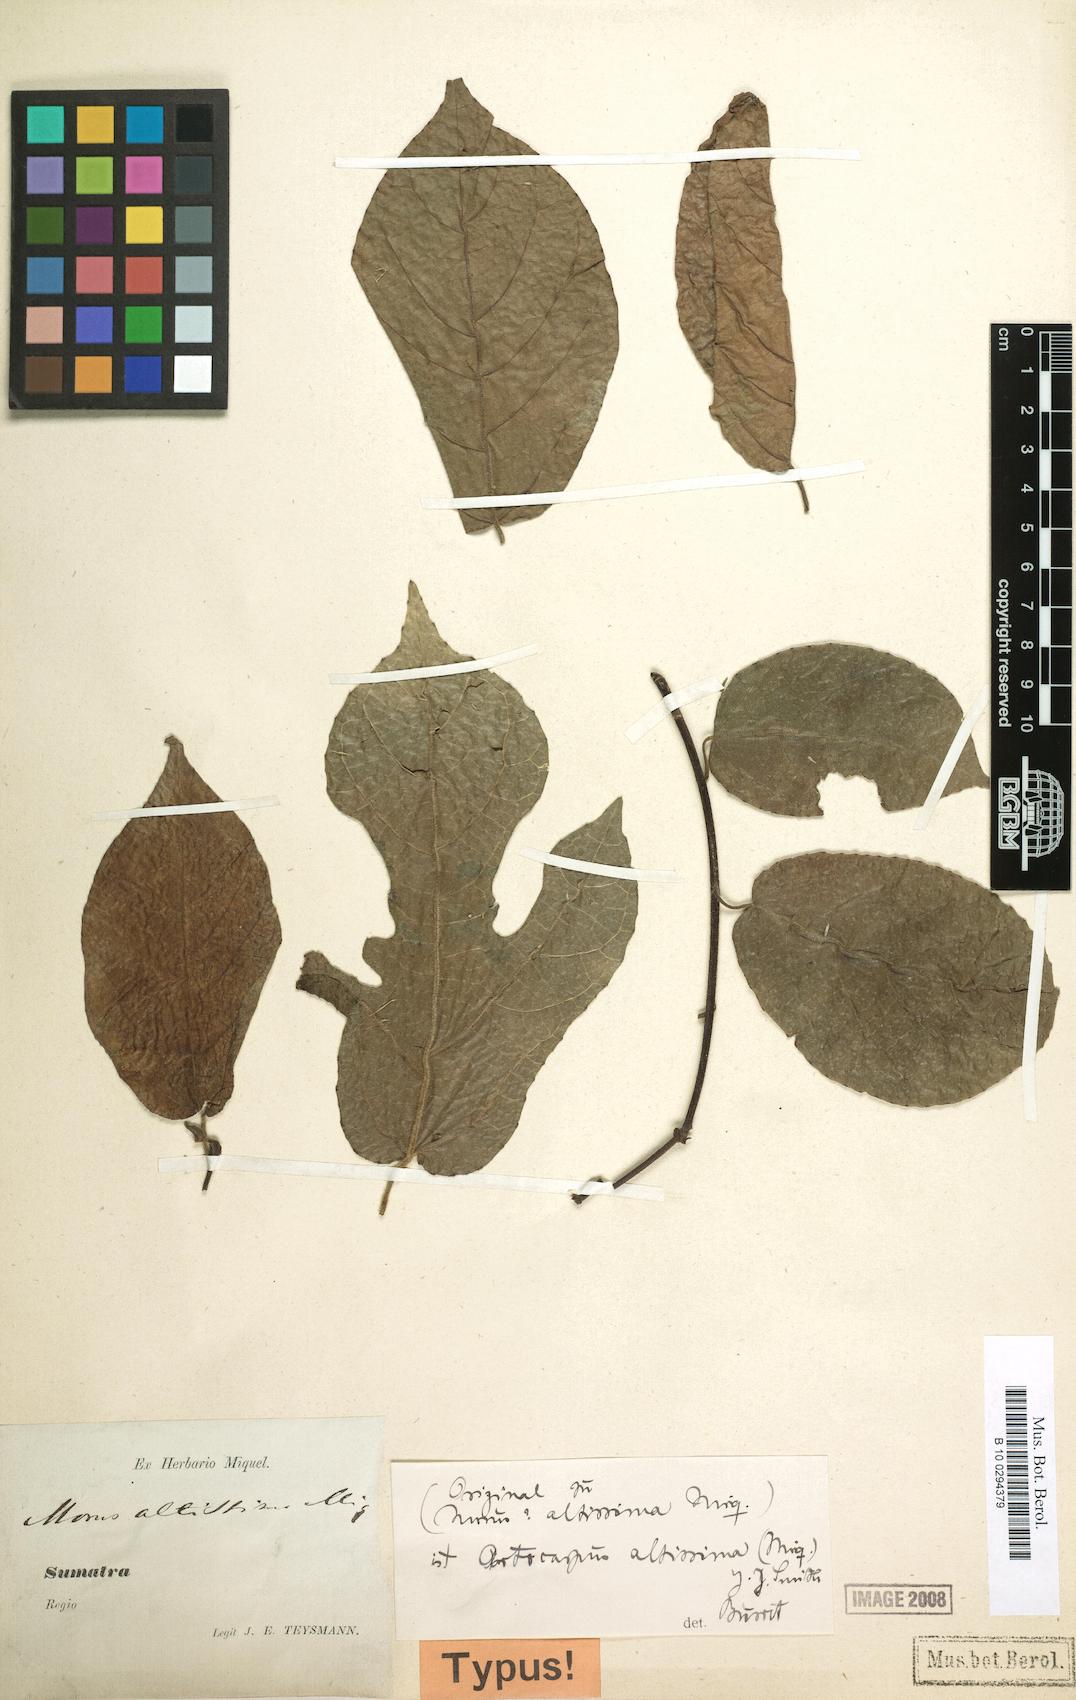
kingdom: Plantae
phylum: Tracheophyta
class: Magnoliopsida
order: Rosales
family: Moraceae
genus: Artocarpus
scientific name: Artocarpus altissimus
